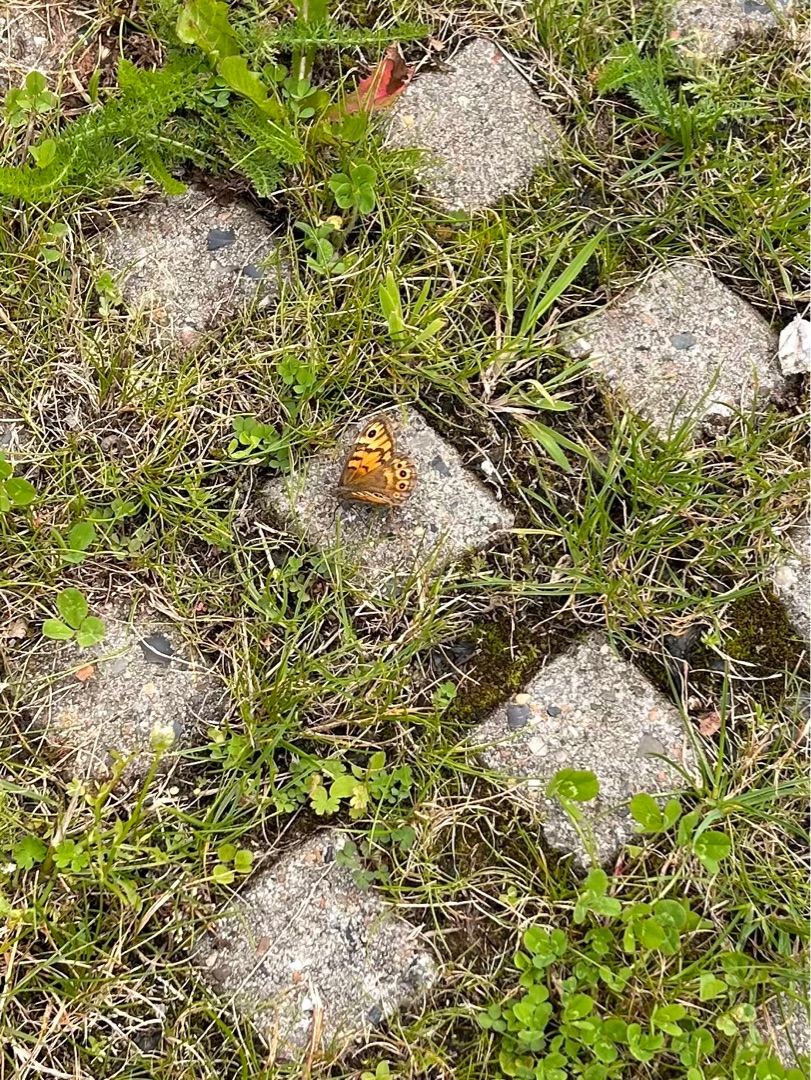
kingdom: Animalia
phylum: Arthropoda
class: Insecta
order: Lepidoptera
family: Nymphalidae
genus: Pararge
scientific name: Pararge Lasiommata megera
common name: Vejrandøje
